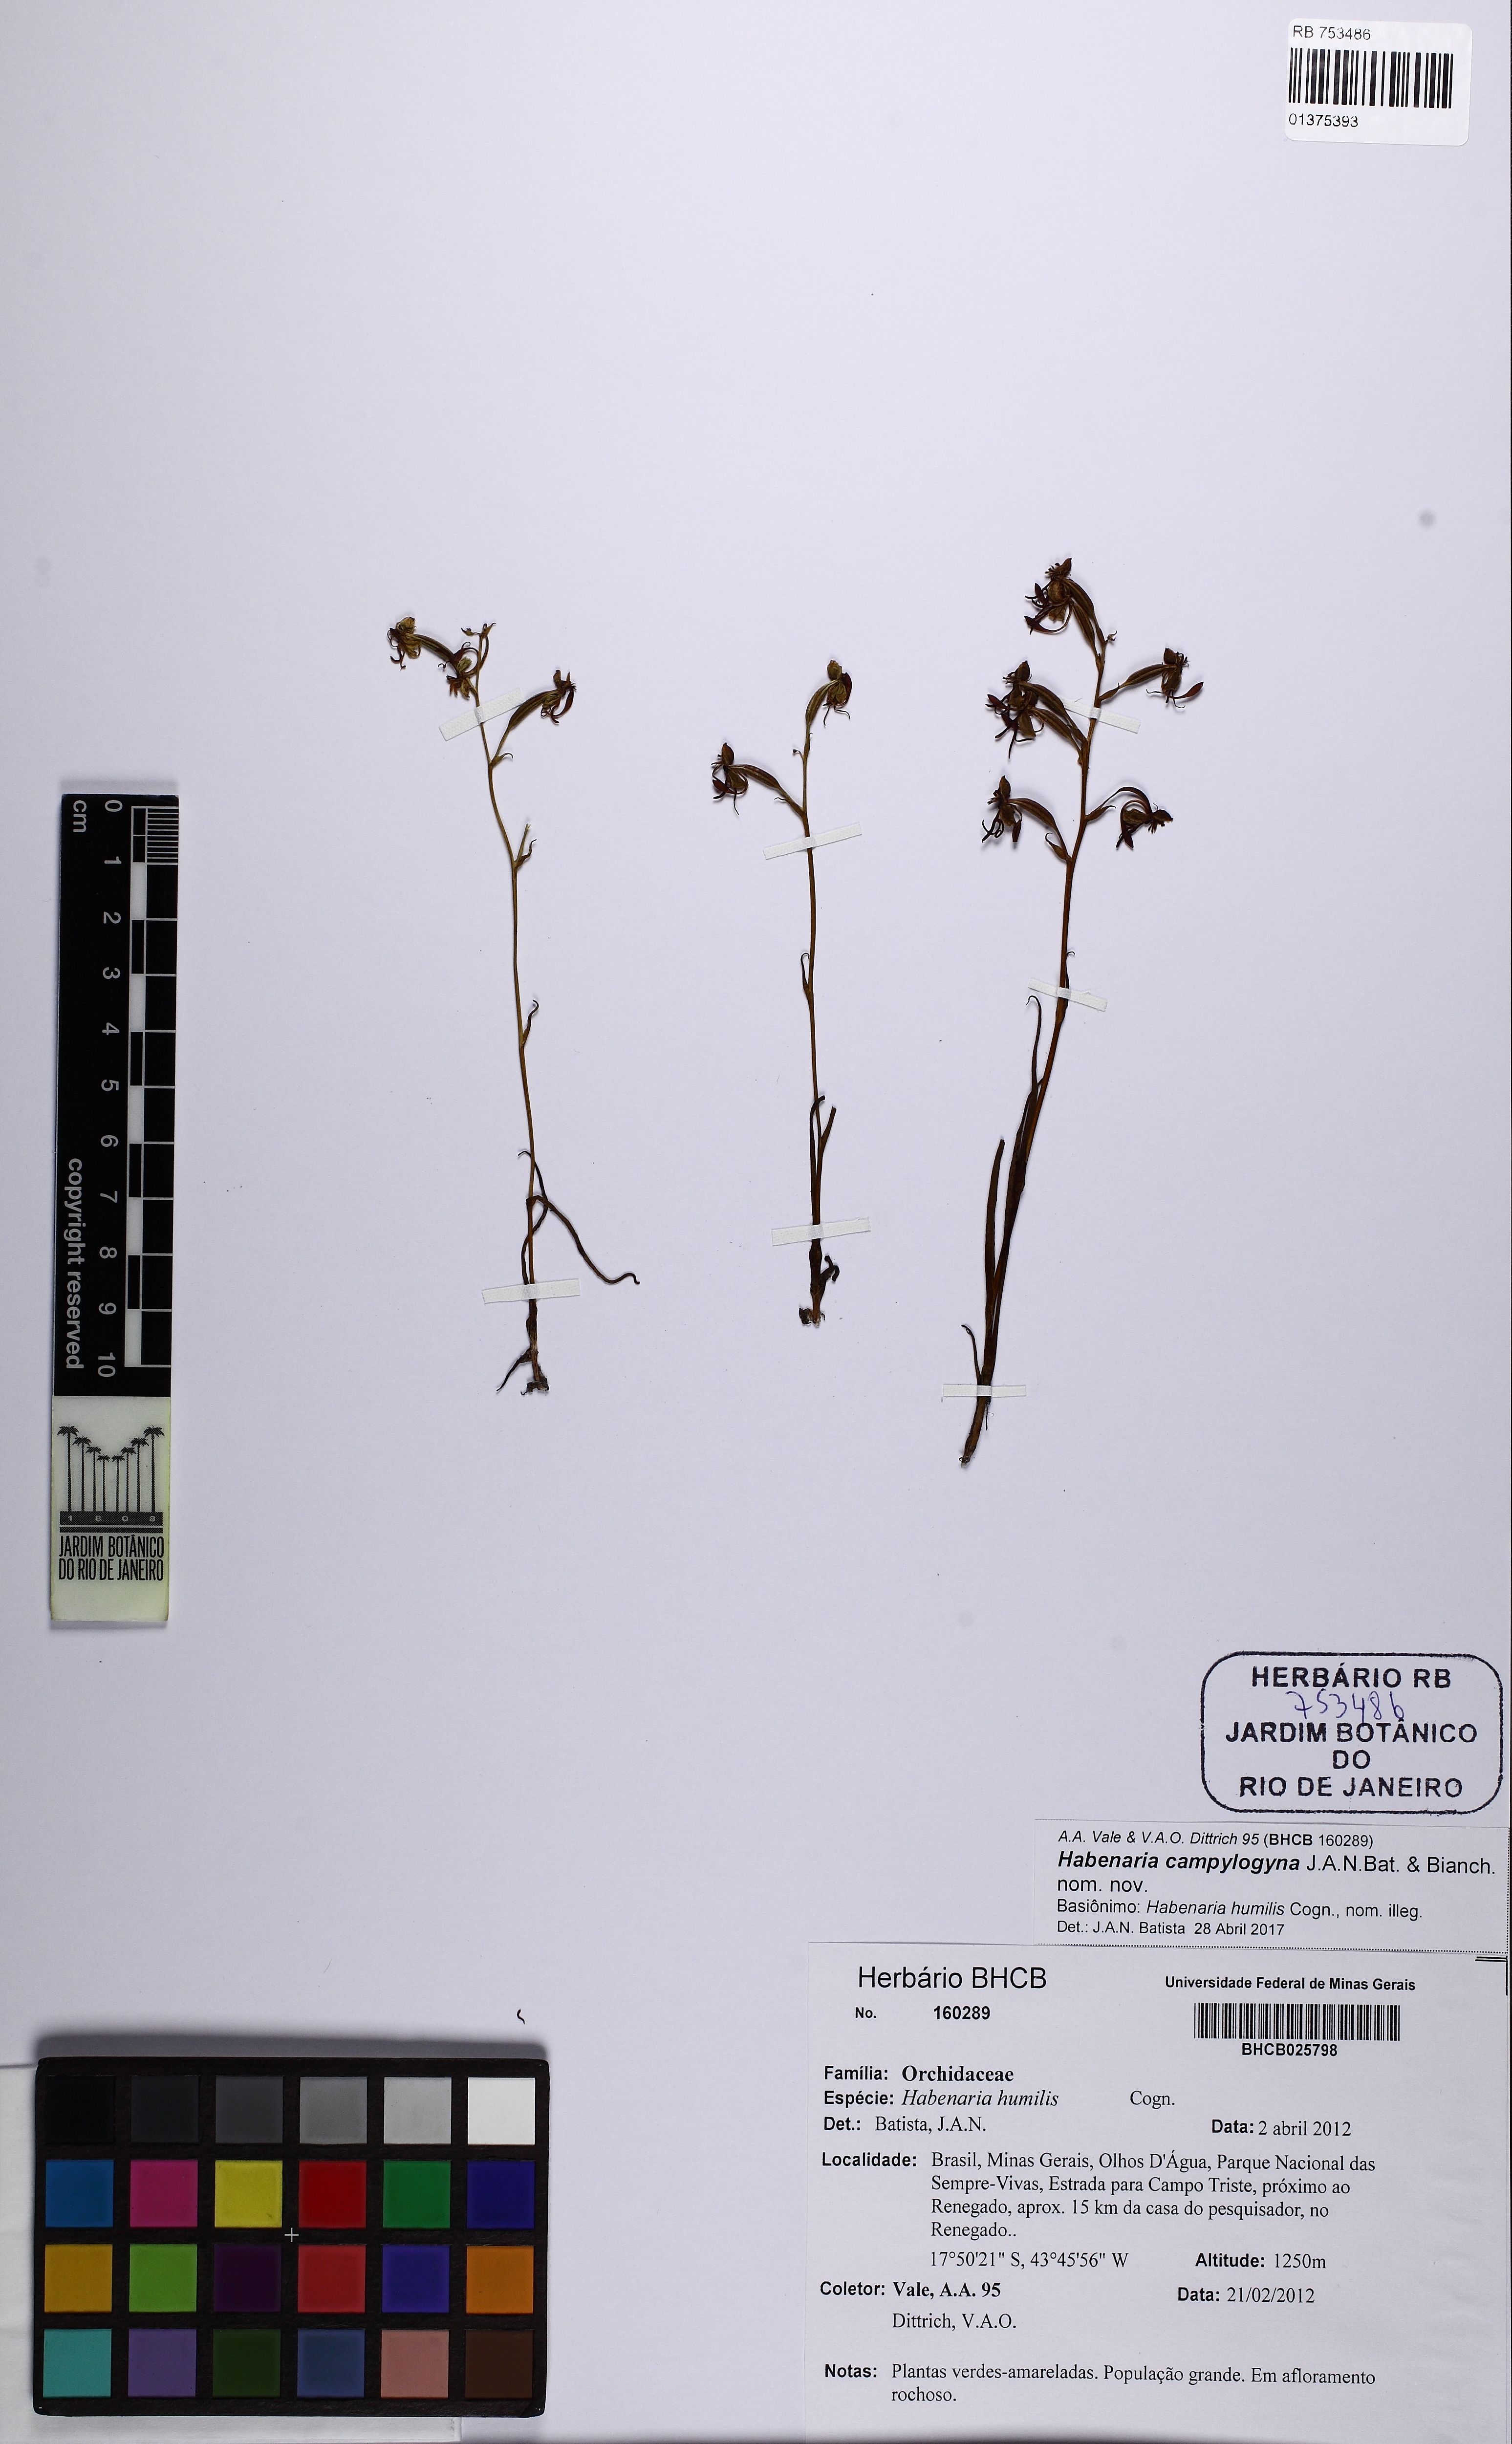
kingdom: Plantae
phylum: Tracheophyta
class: Liliopsida
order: Asparagales
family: Orchidaceae
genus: Habenaria
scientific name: Habenaria campylogyna
